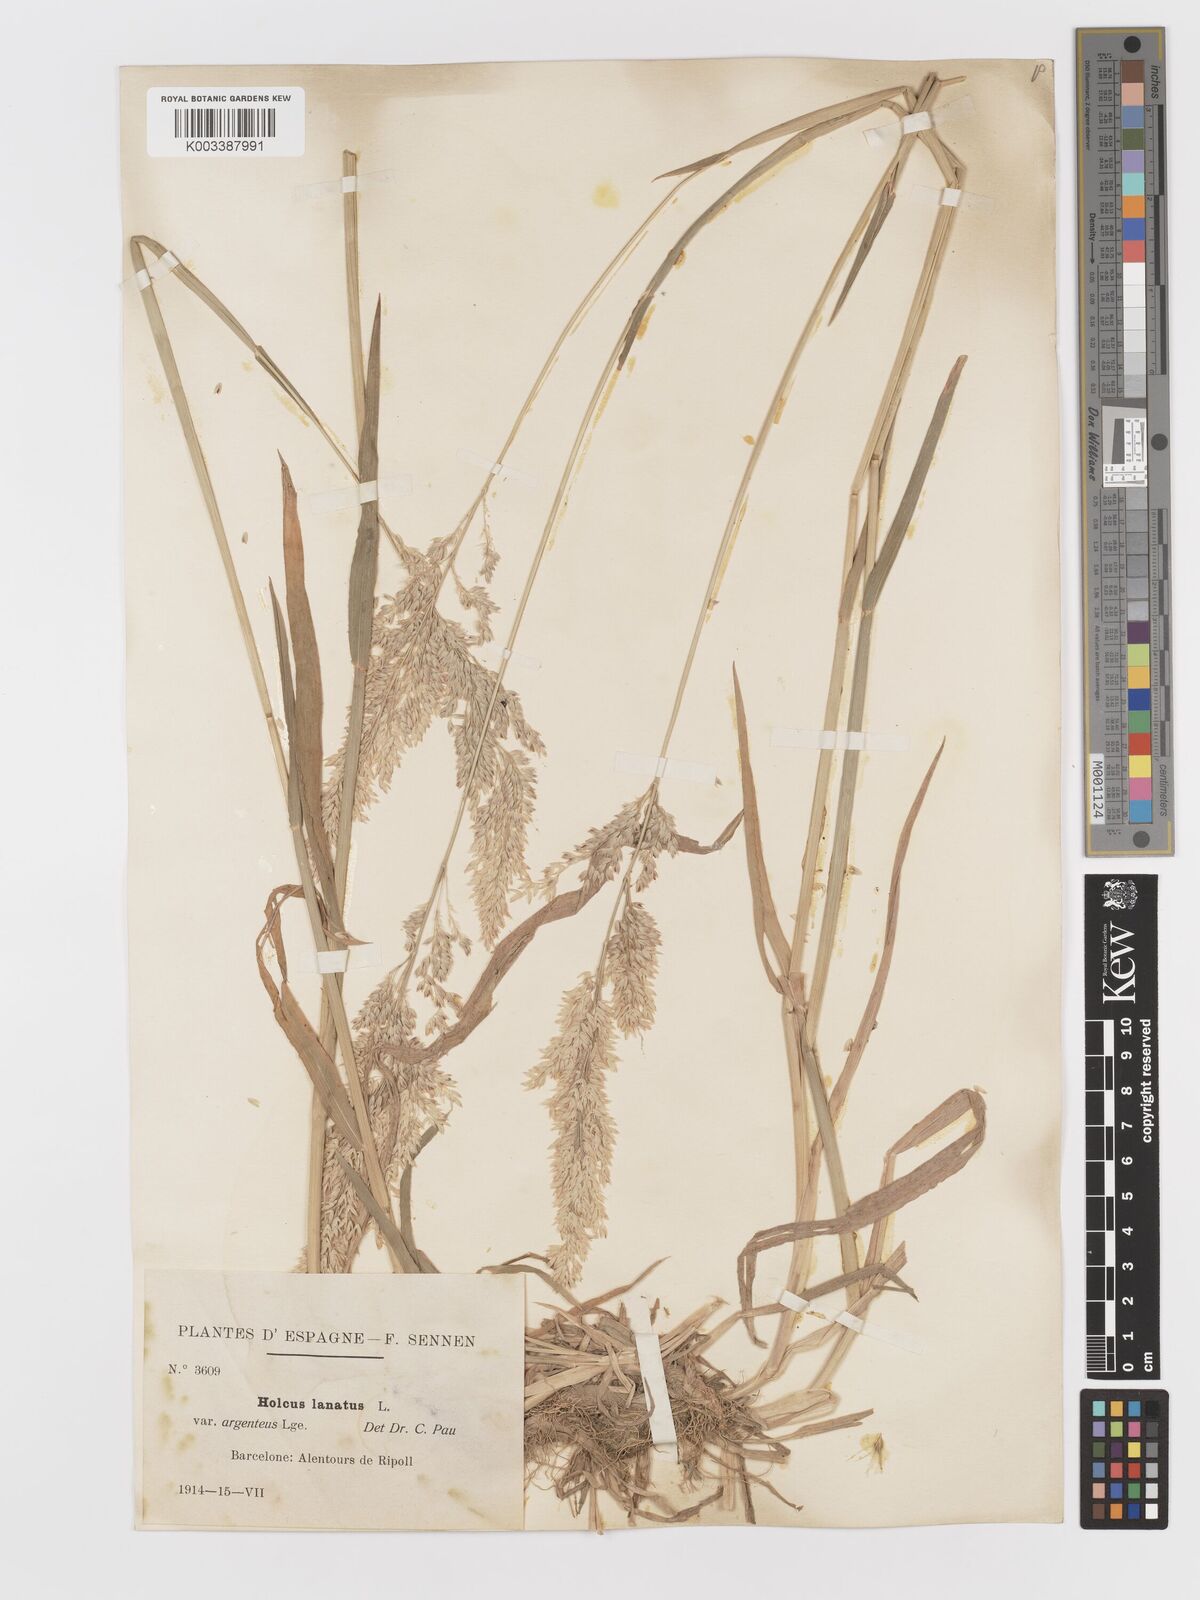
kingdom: Plantae
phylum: Tracheophyta
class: Liliopsida
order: Poales
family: Poaceae
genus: Holcus
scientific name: Holcus lanatus
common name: Yorkshire-fog
